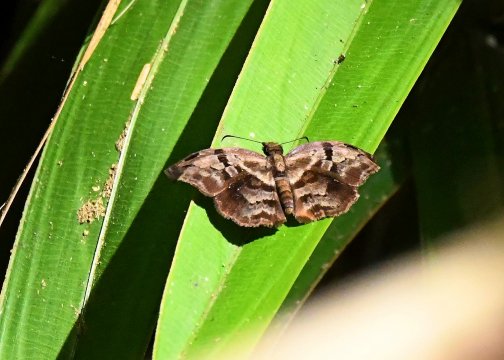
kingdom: Animalia
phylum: Arthropoda
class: Insecta
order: Lepidoptera
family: Hesperiidae
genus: Helias
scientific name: Helias phalaenoides
